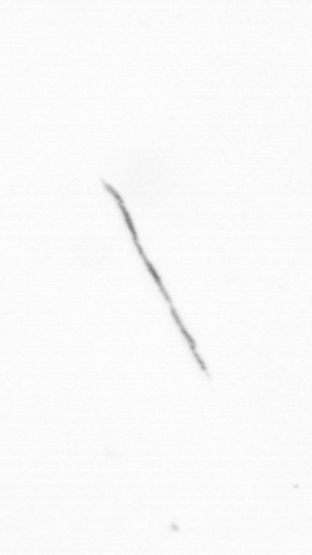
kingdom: Chromista
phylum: Ochrophyta
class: Bacillariophyceae
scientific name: Bacillariophyceae
